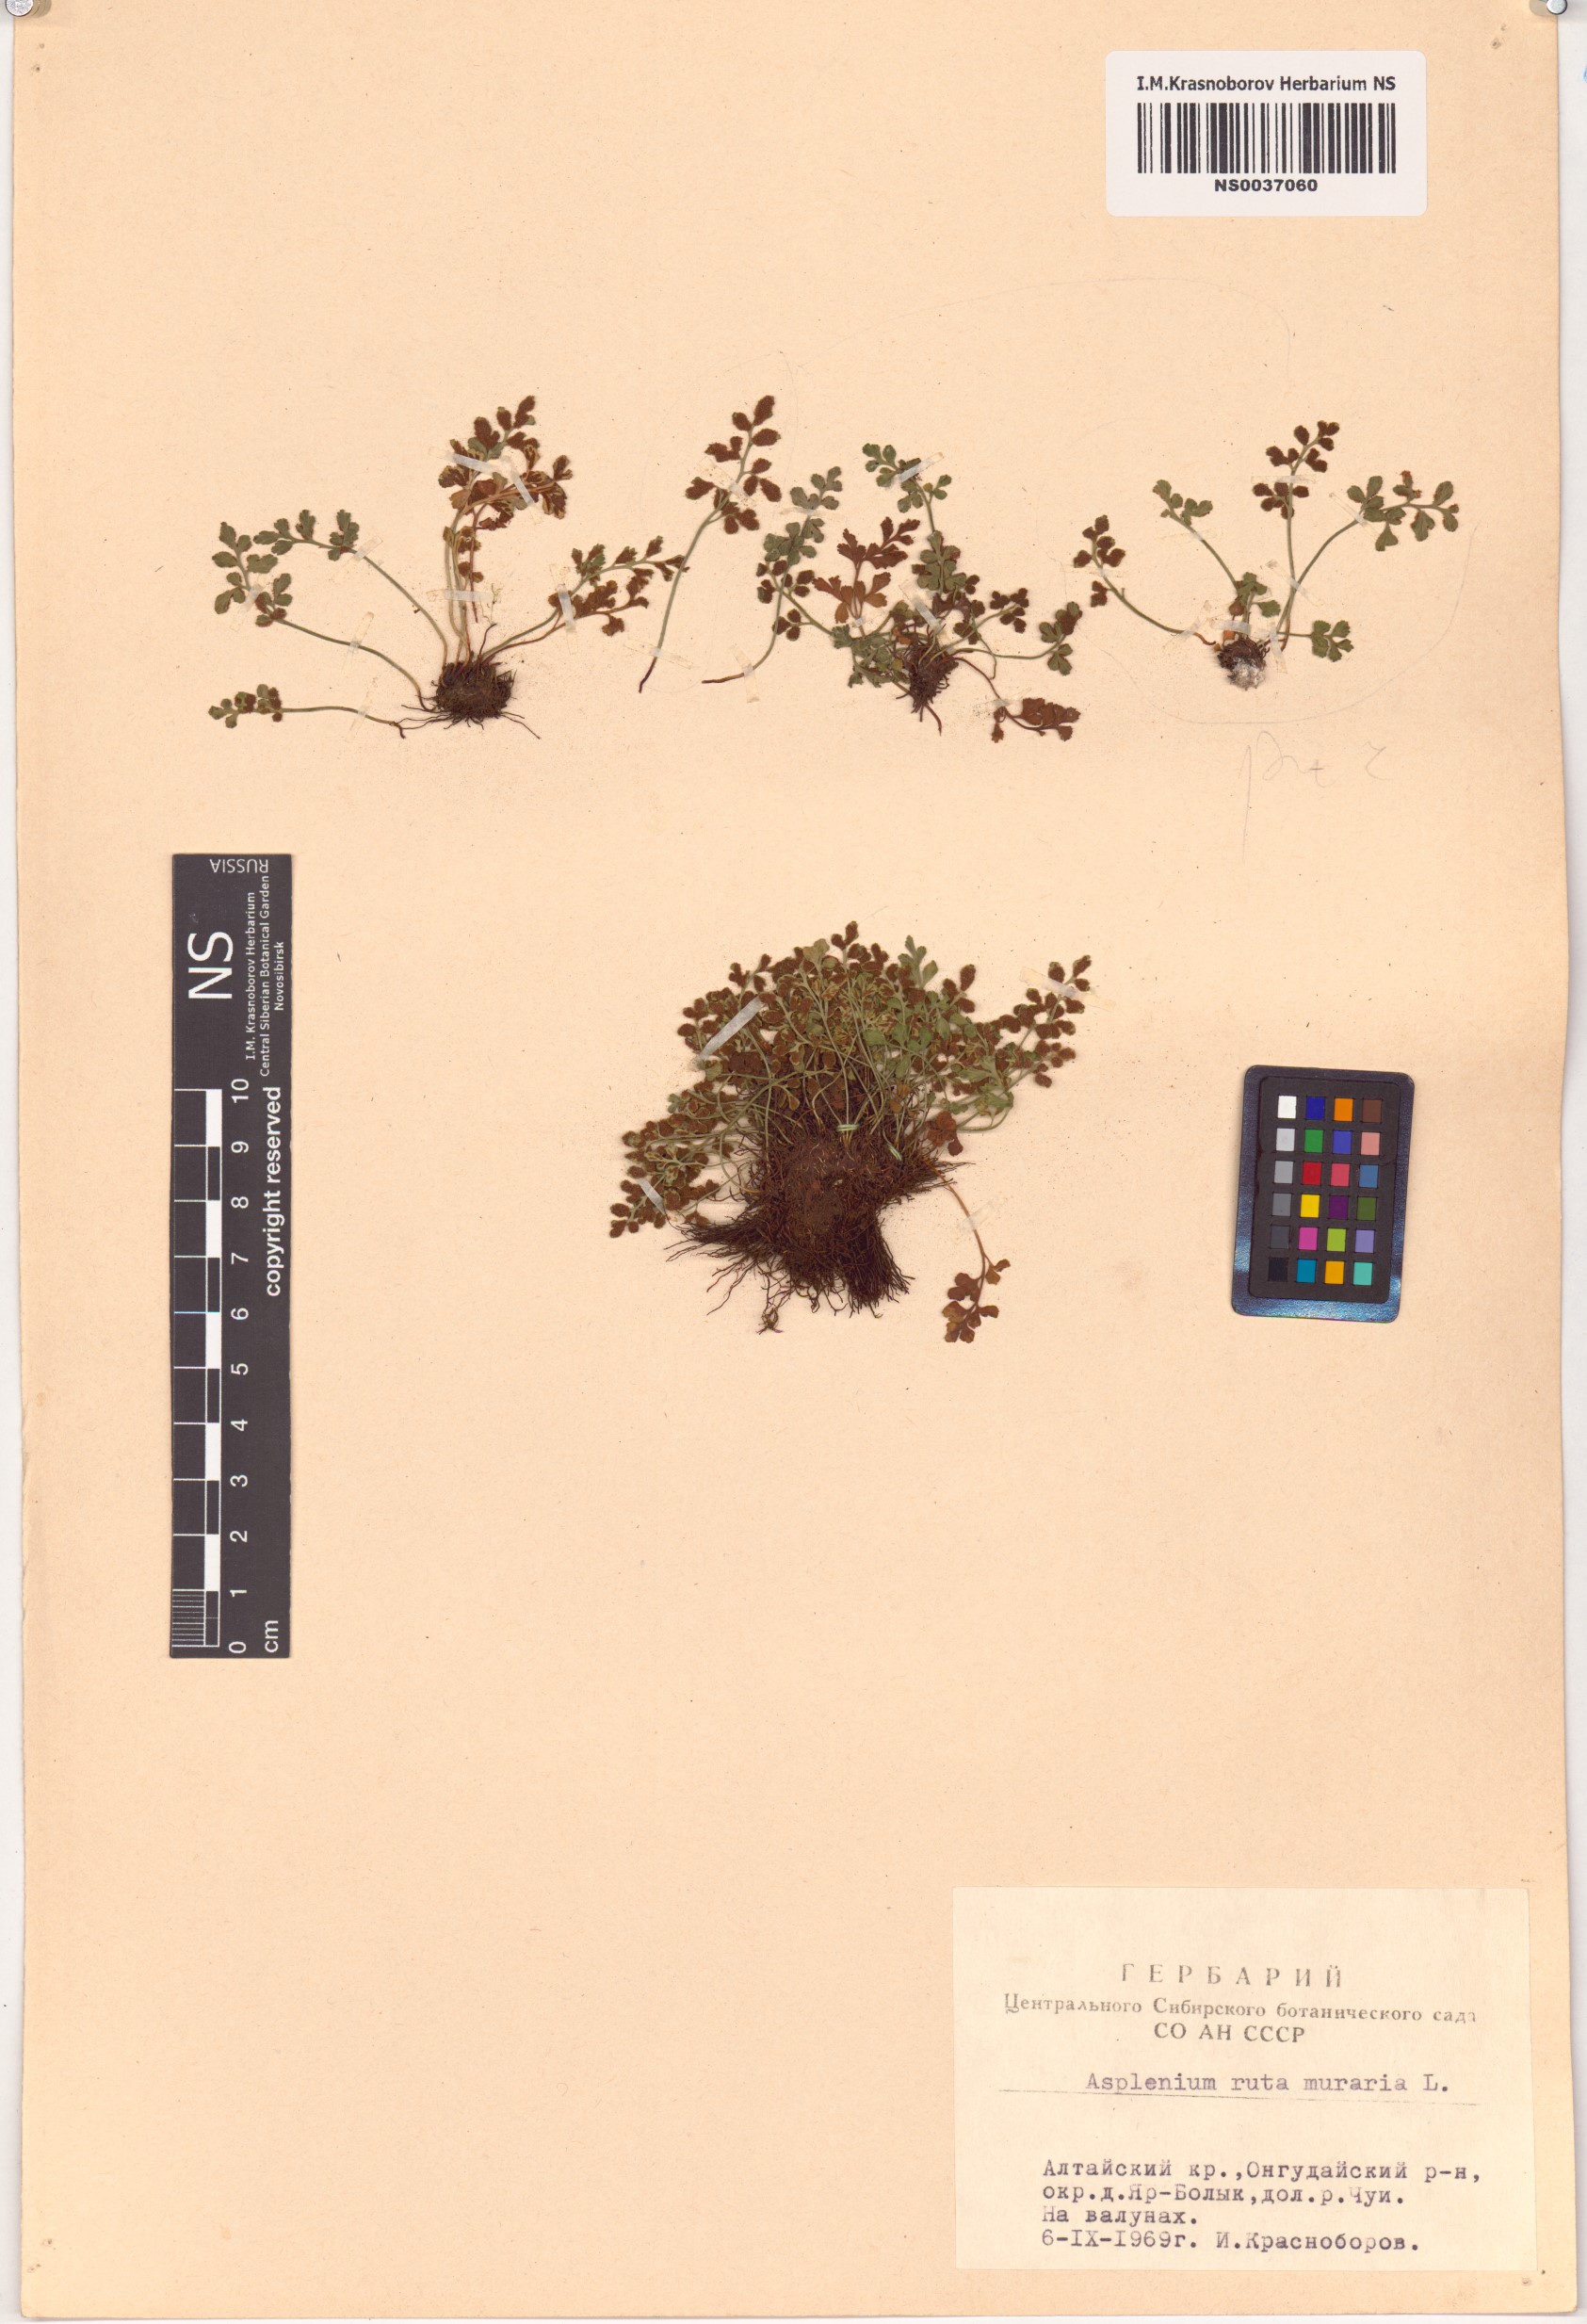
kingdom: Plantae
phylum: Tracheophyta
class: Polypodiopsida
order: Polypodiales
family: Aspleniaceae
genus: Asplenium
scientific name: Asplenium ruta-muraria
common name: Wall-rue
